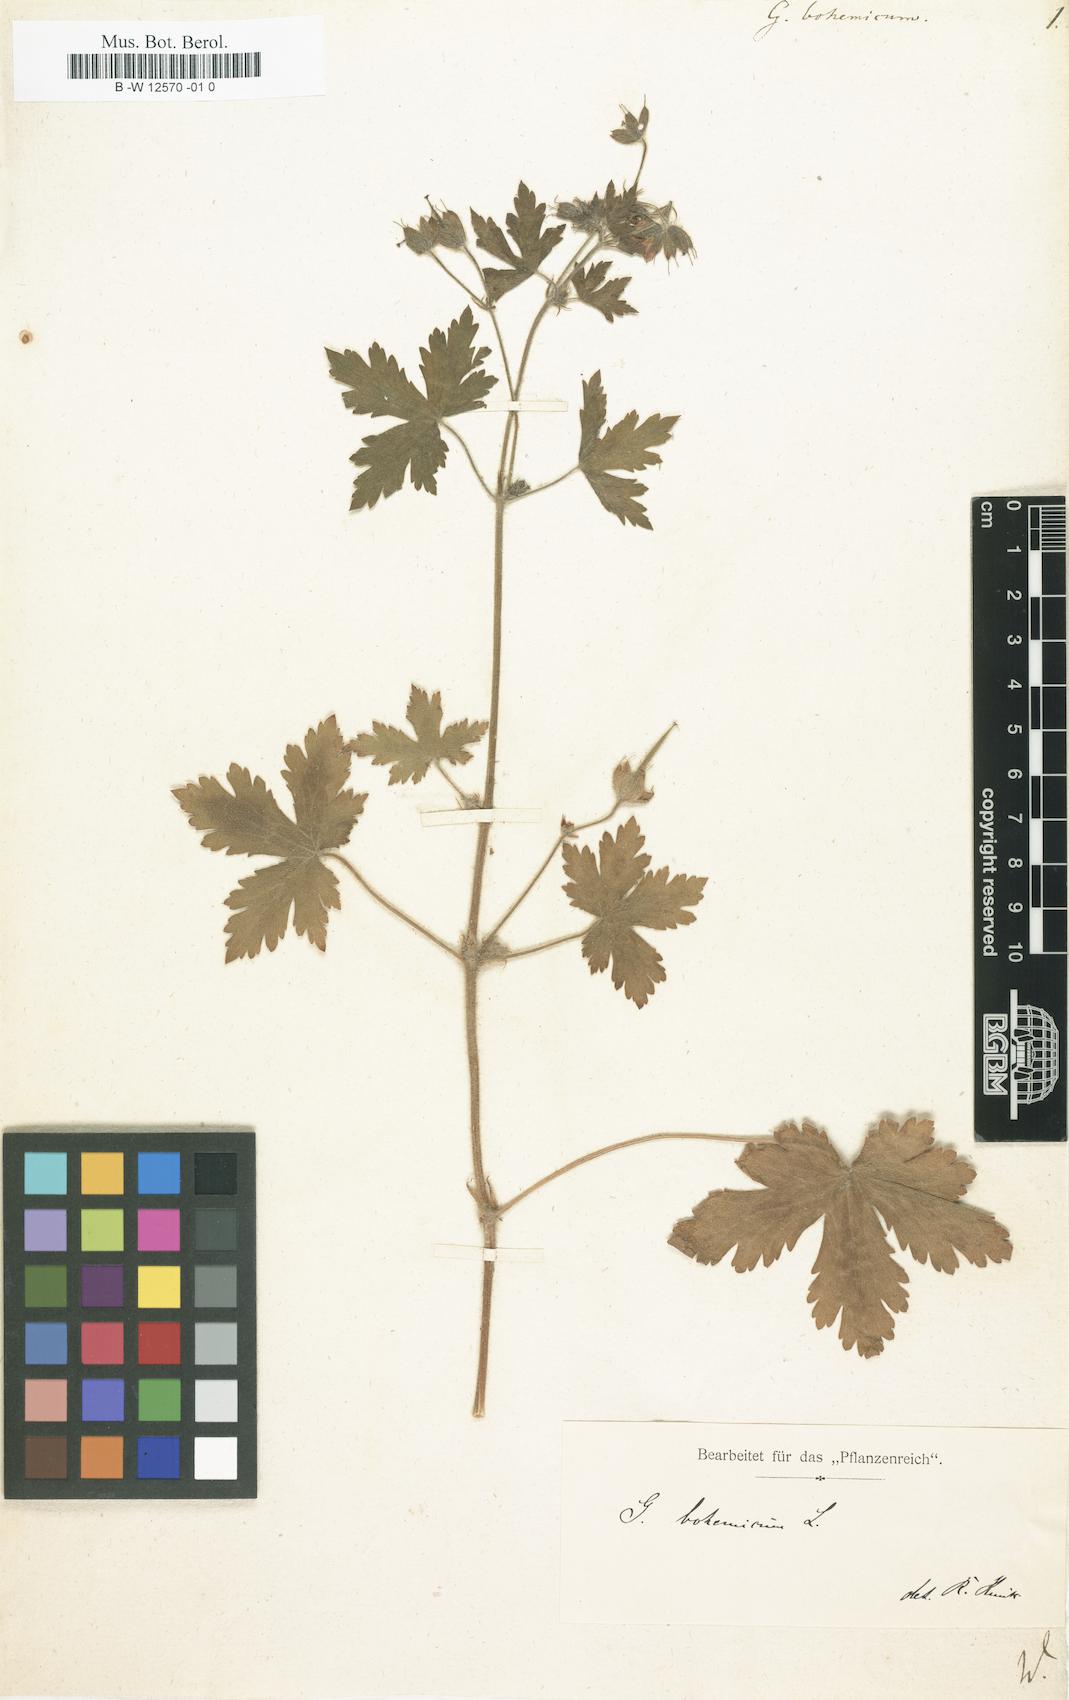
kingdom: Plantae
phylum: Tracheophyta
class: Magnoliopsida
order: Geraniales
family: Geraniaceae
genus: Geranium
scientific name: Geranium bohemicum
